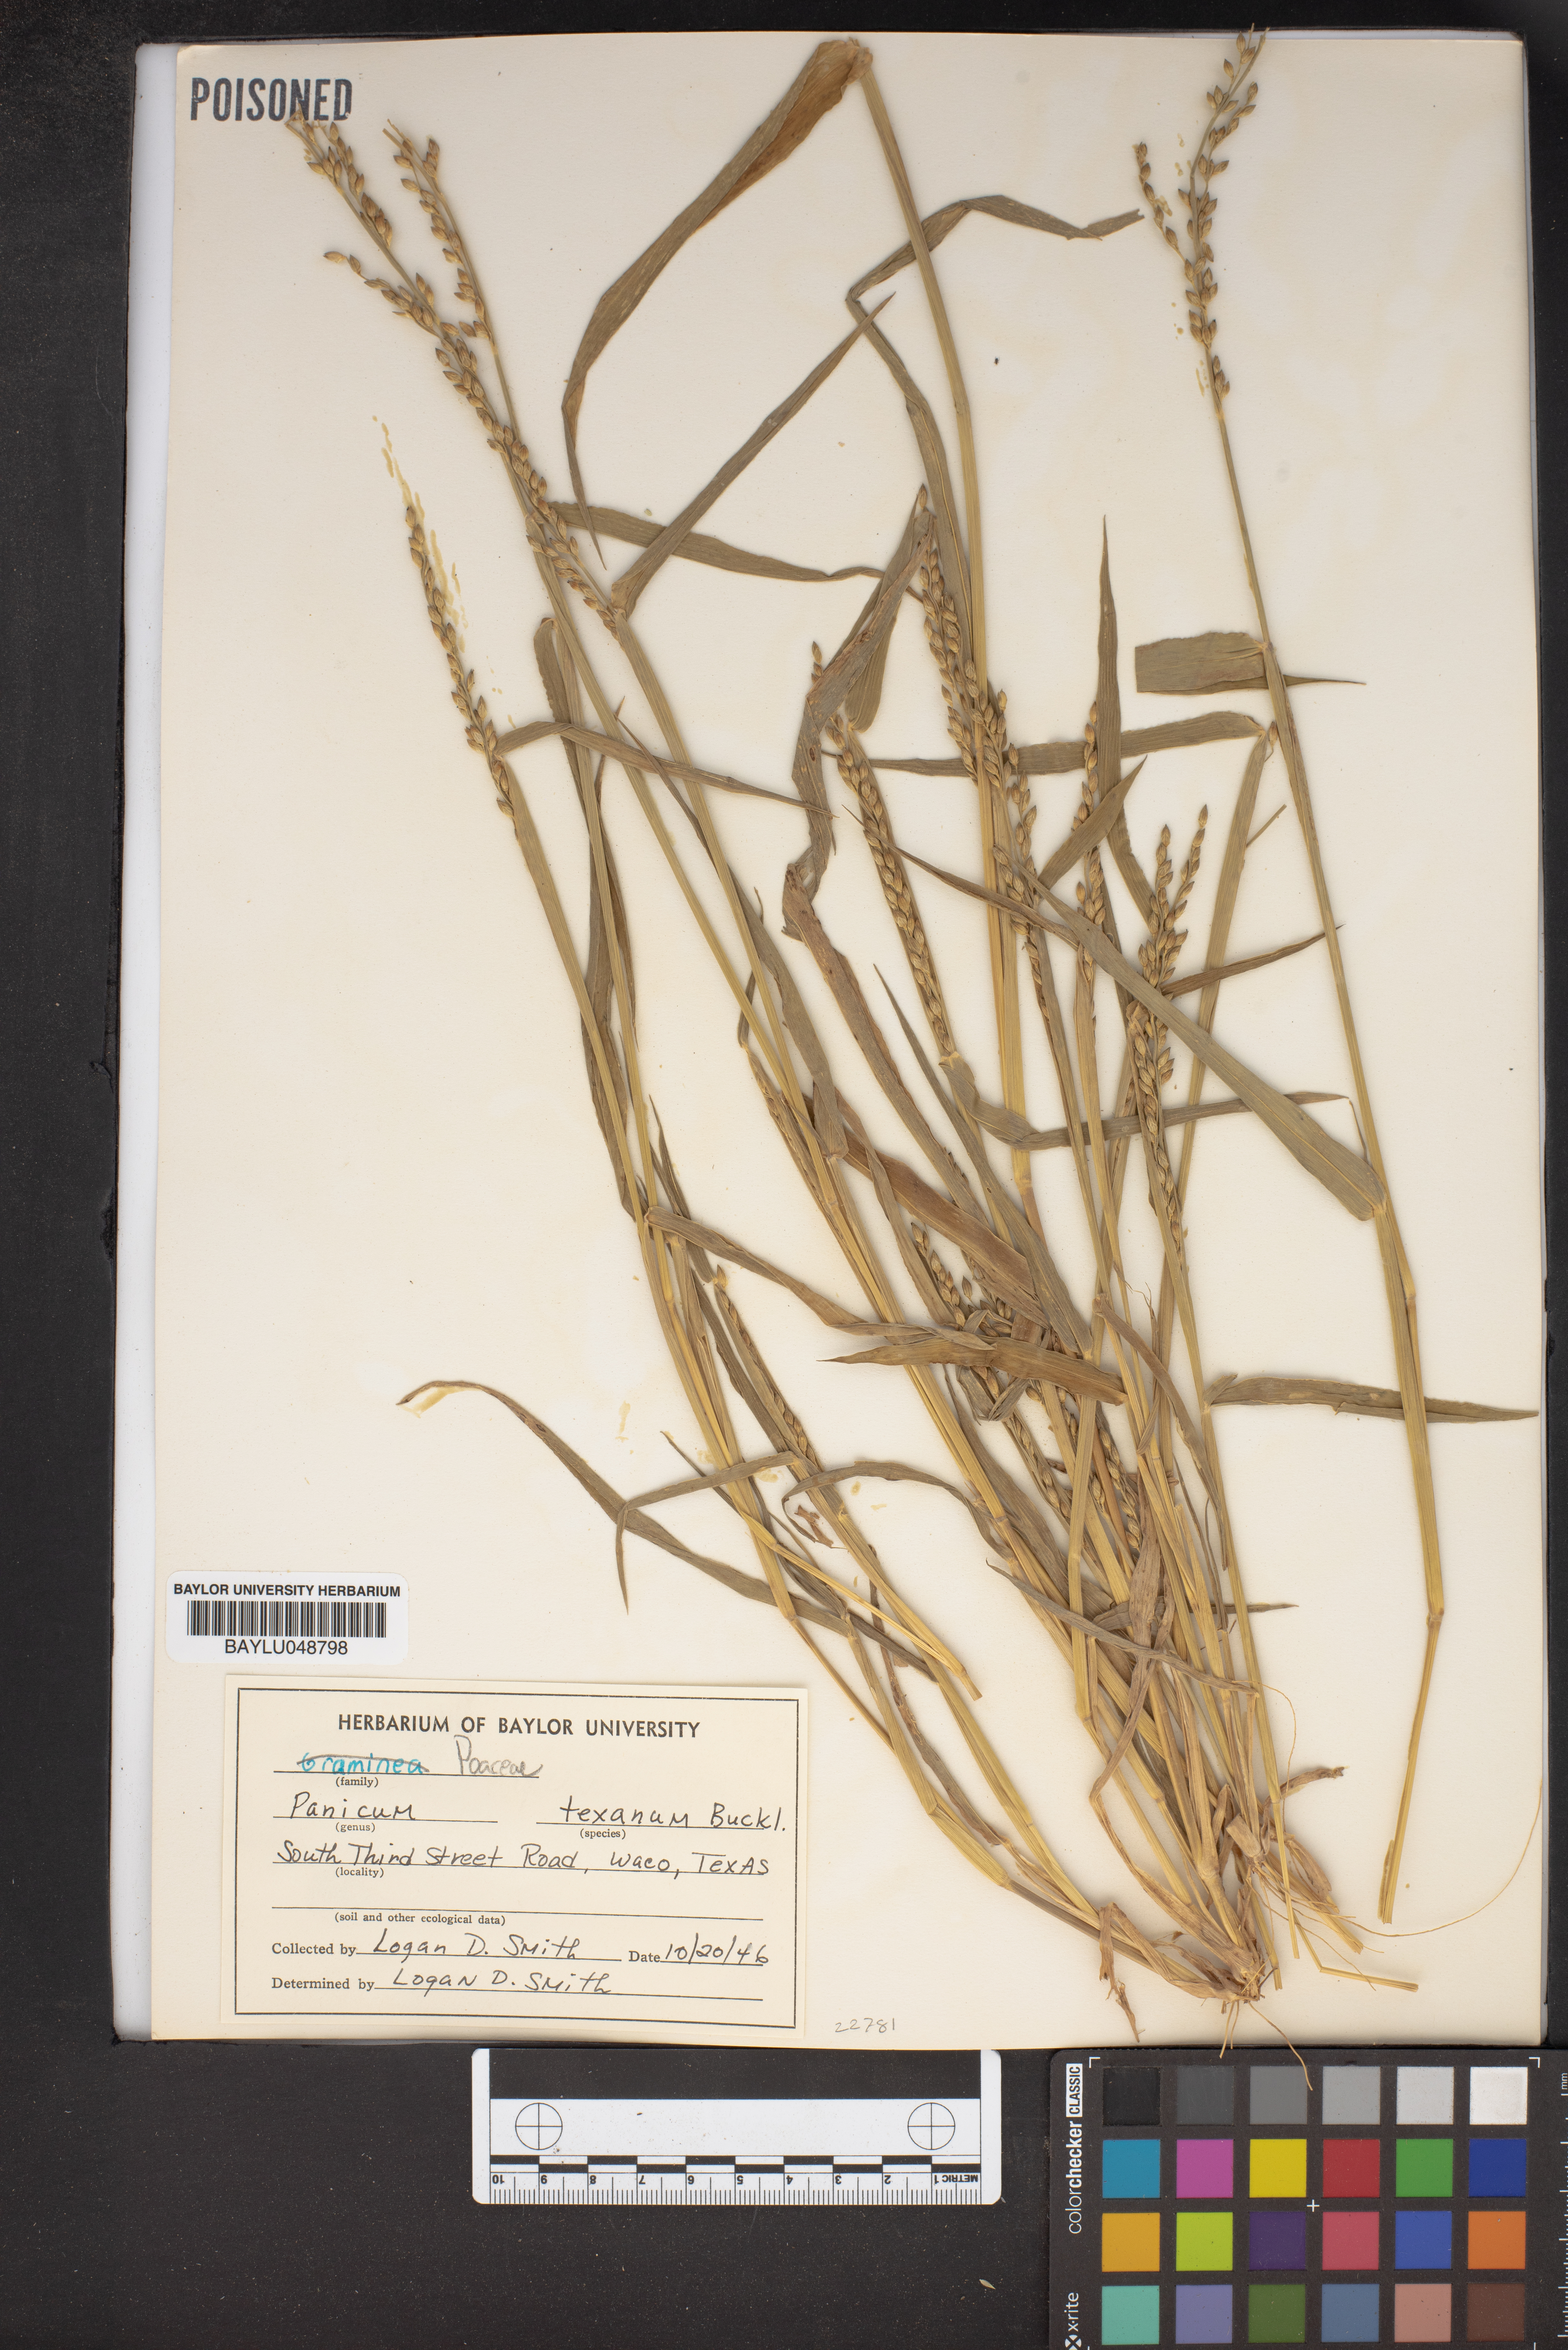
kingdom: Plantae
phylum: Tracheophyta
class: Liliopsida
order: Poales
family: Poaceae
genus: Urochloa
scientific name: Urochloa texana
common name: Texas millet
